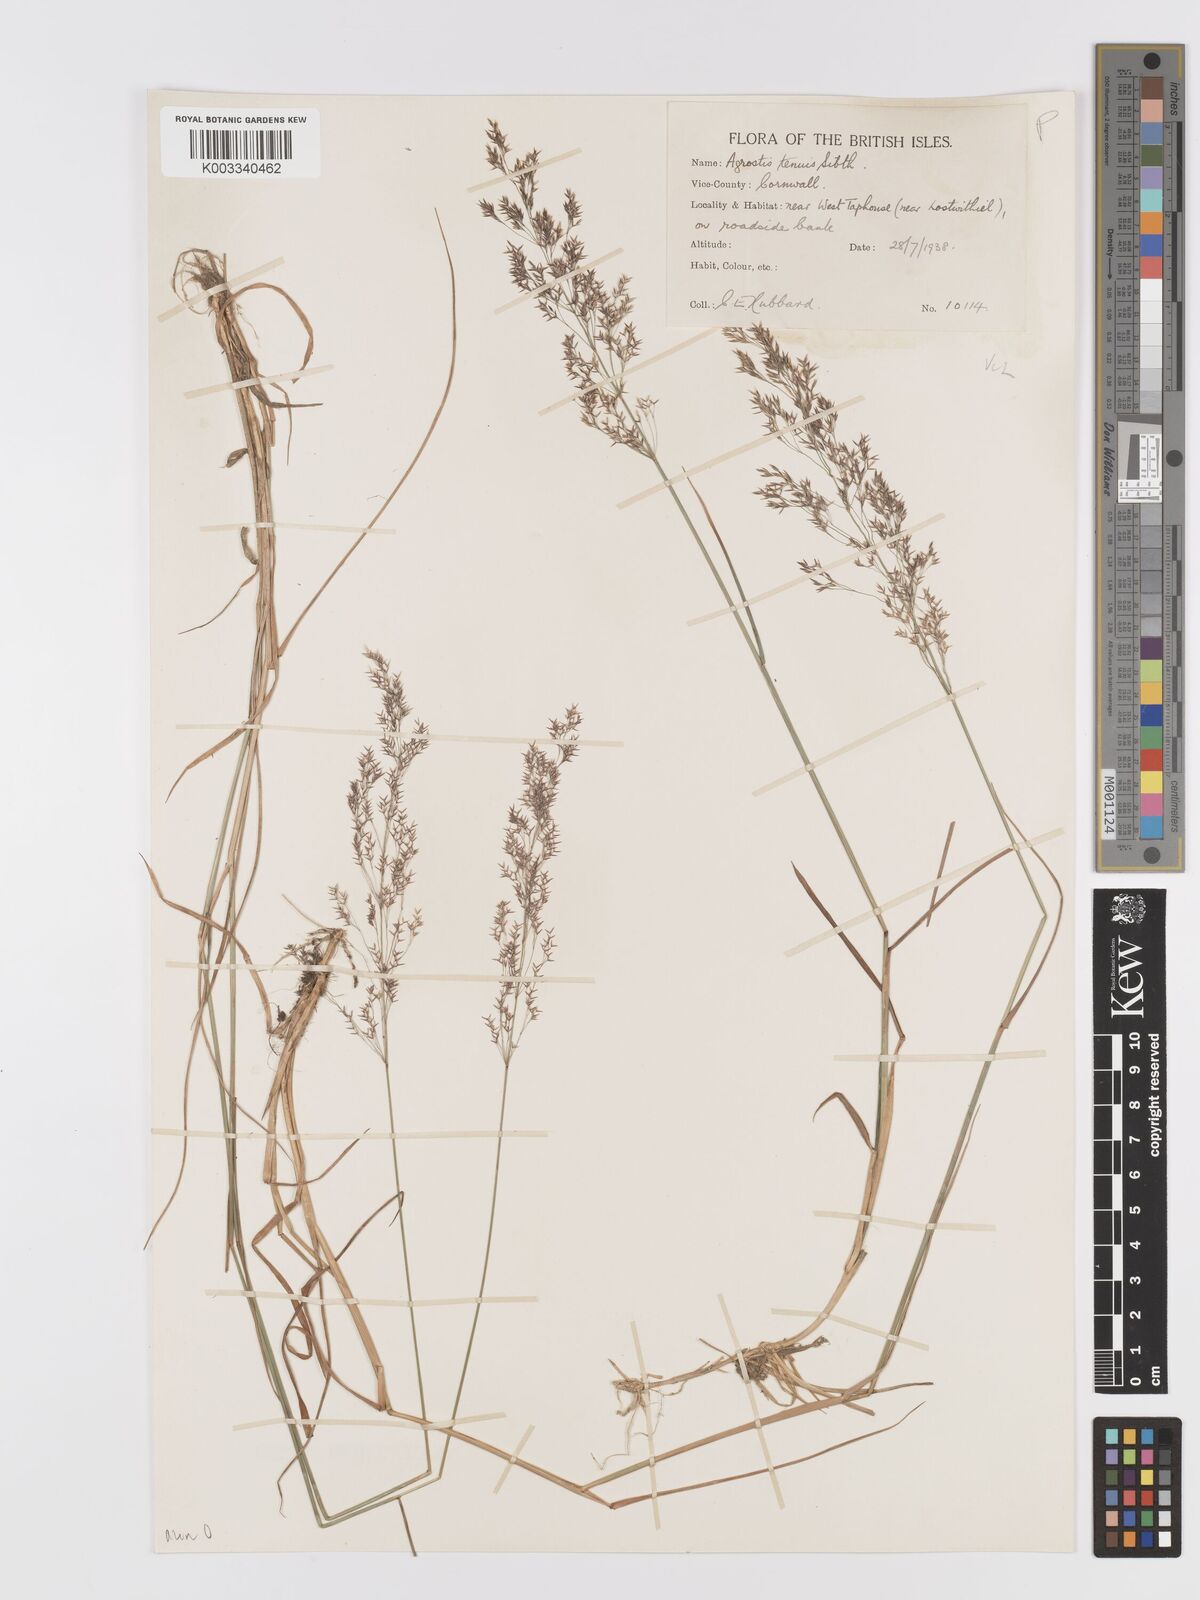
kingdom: Plantae
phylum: Tracheophyta
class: Liliopsida
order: Poales
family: Poaceae
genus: Agrostis
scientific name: Agrostis capillaris
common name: Colonial bentgrass
